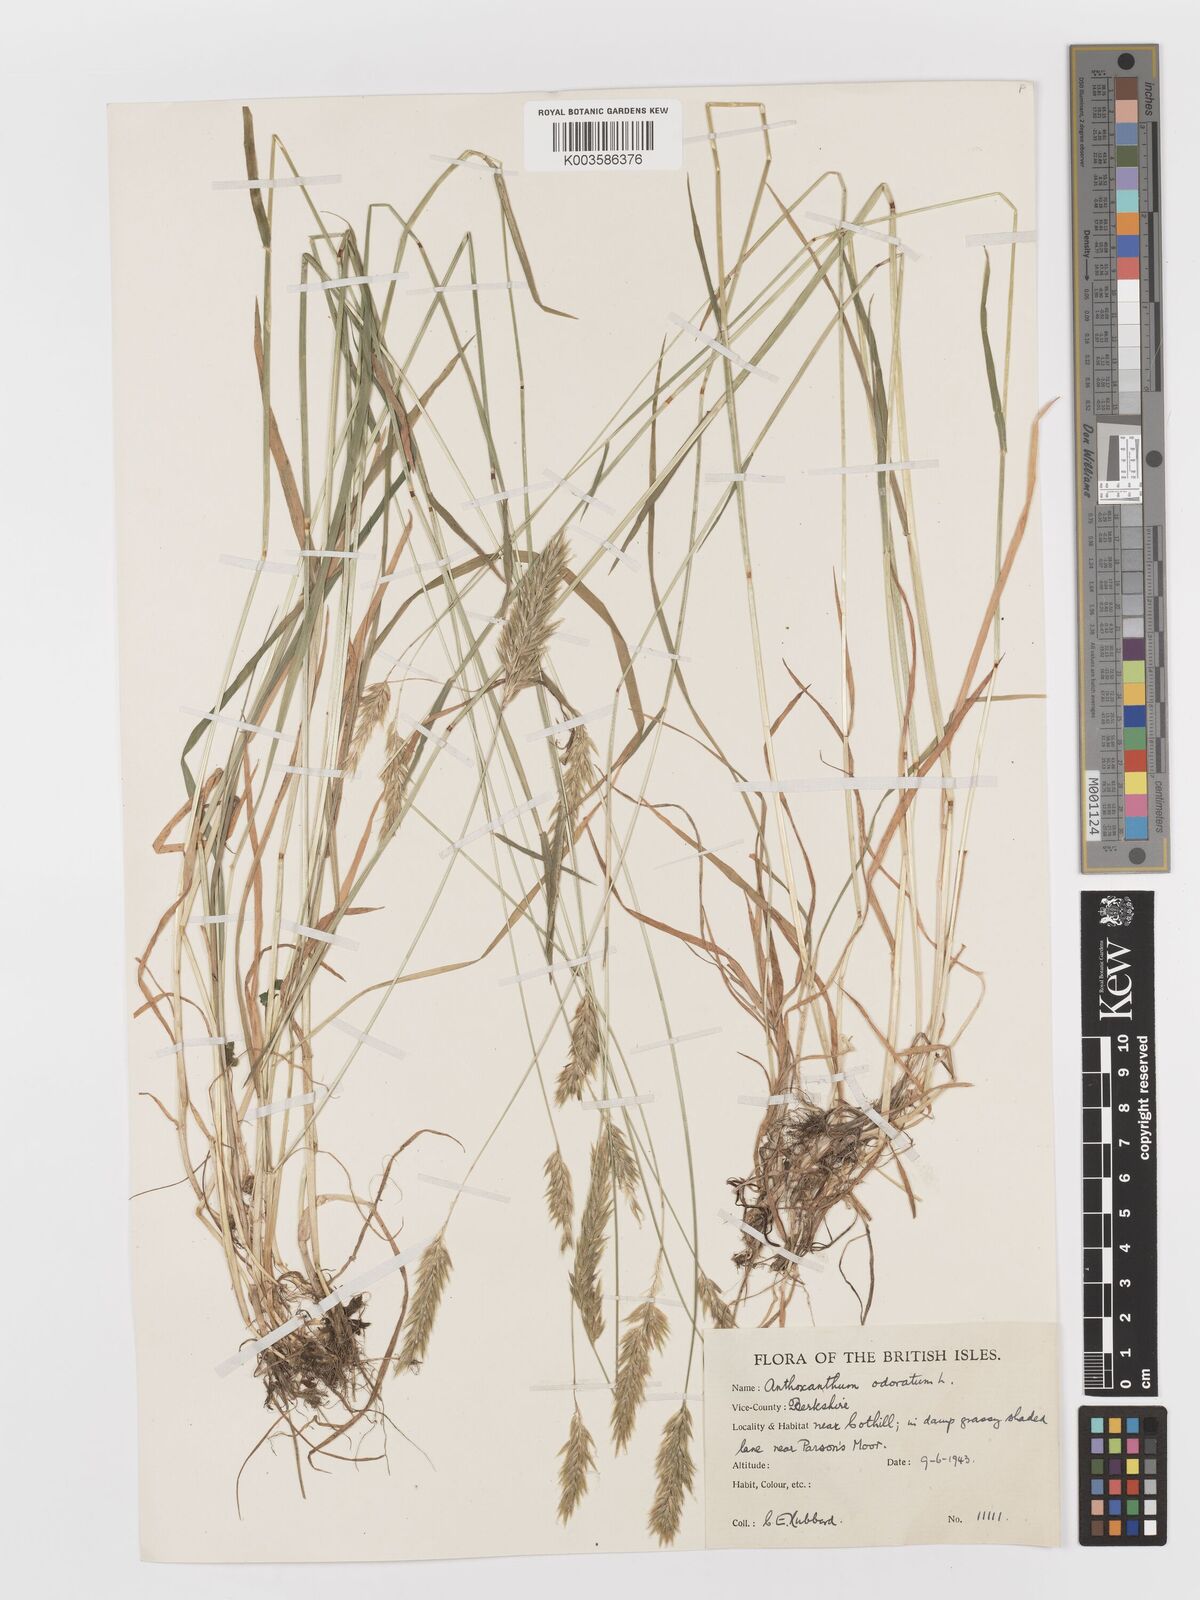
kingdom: Plantae
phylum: Tracheophyta
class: Liliopsida
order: Poales
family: Poaceae
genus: Anthoxanthum
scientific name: Anthoxanthum odoratum
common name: Sweet vernalgrass
